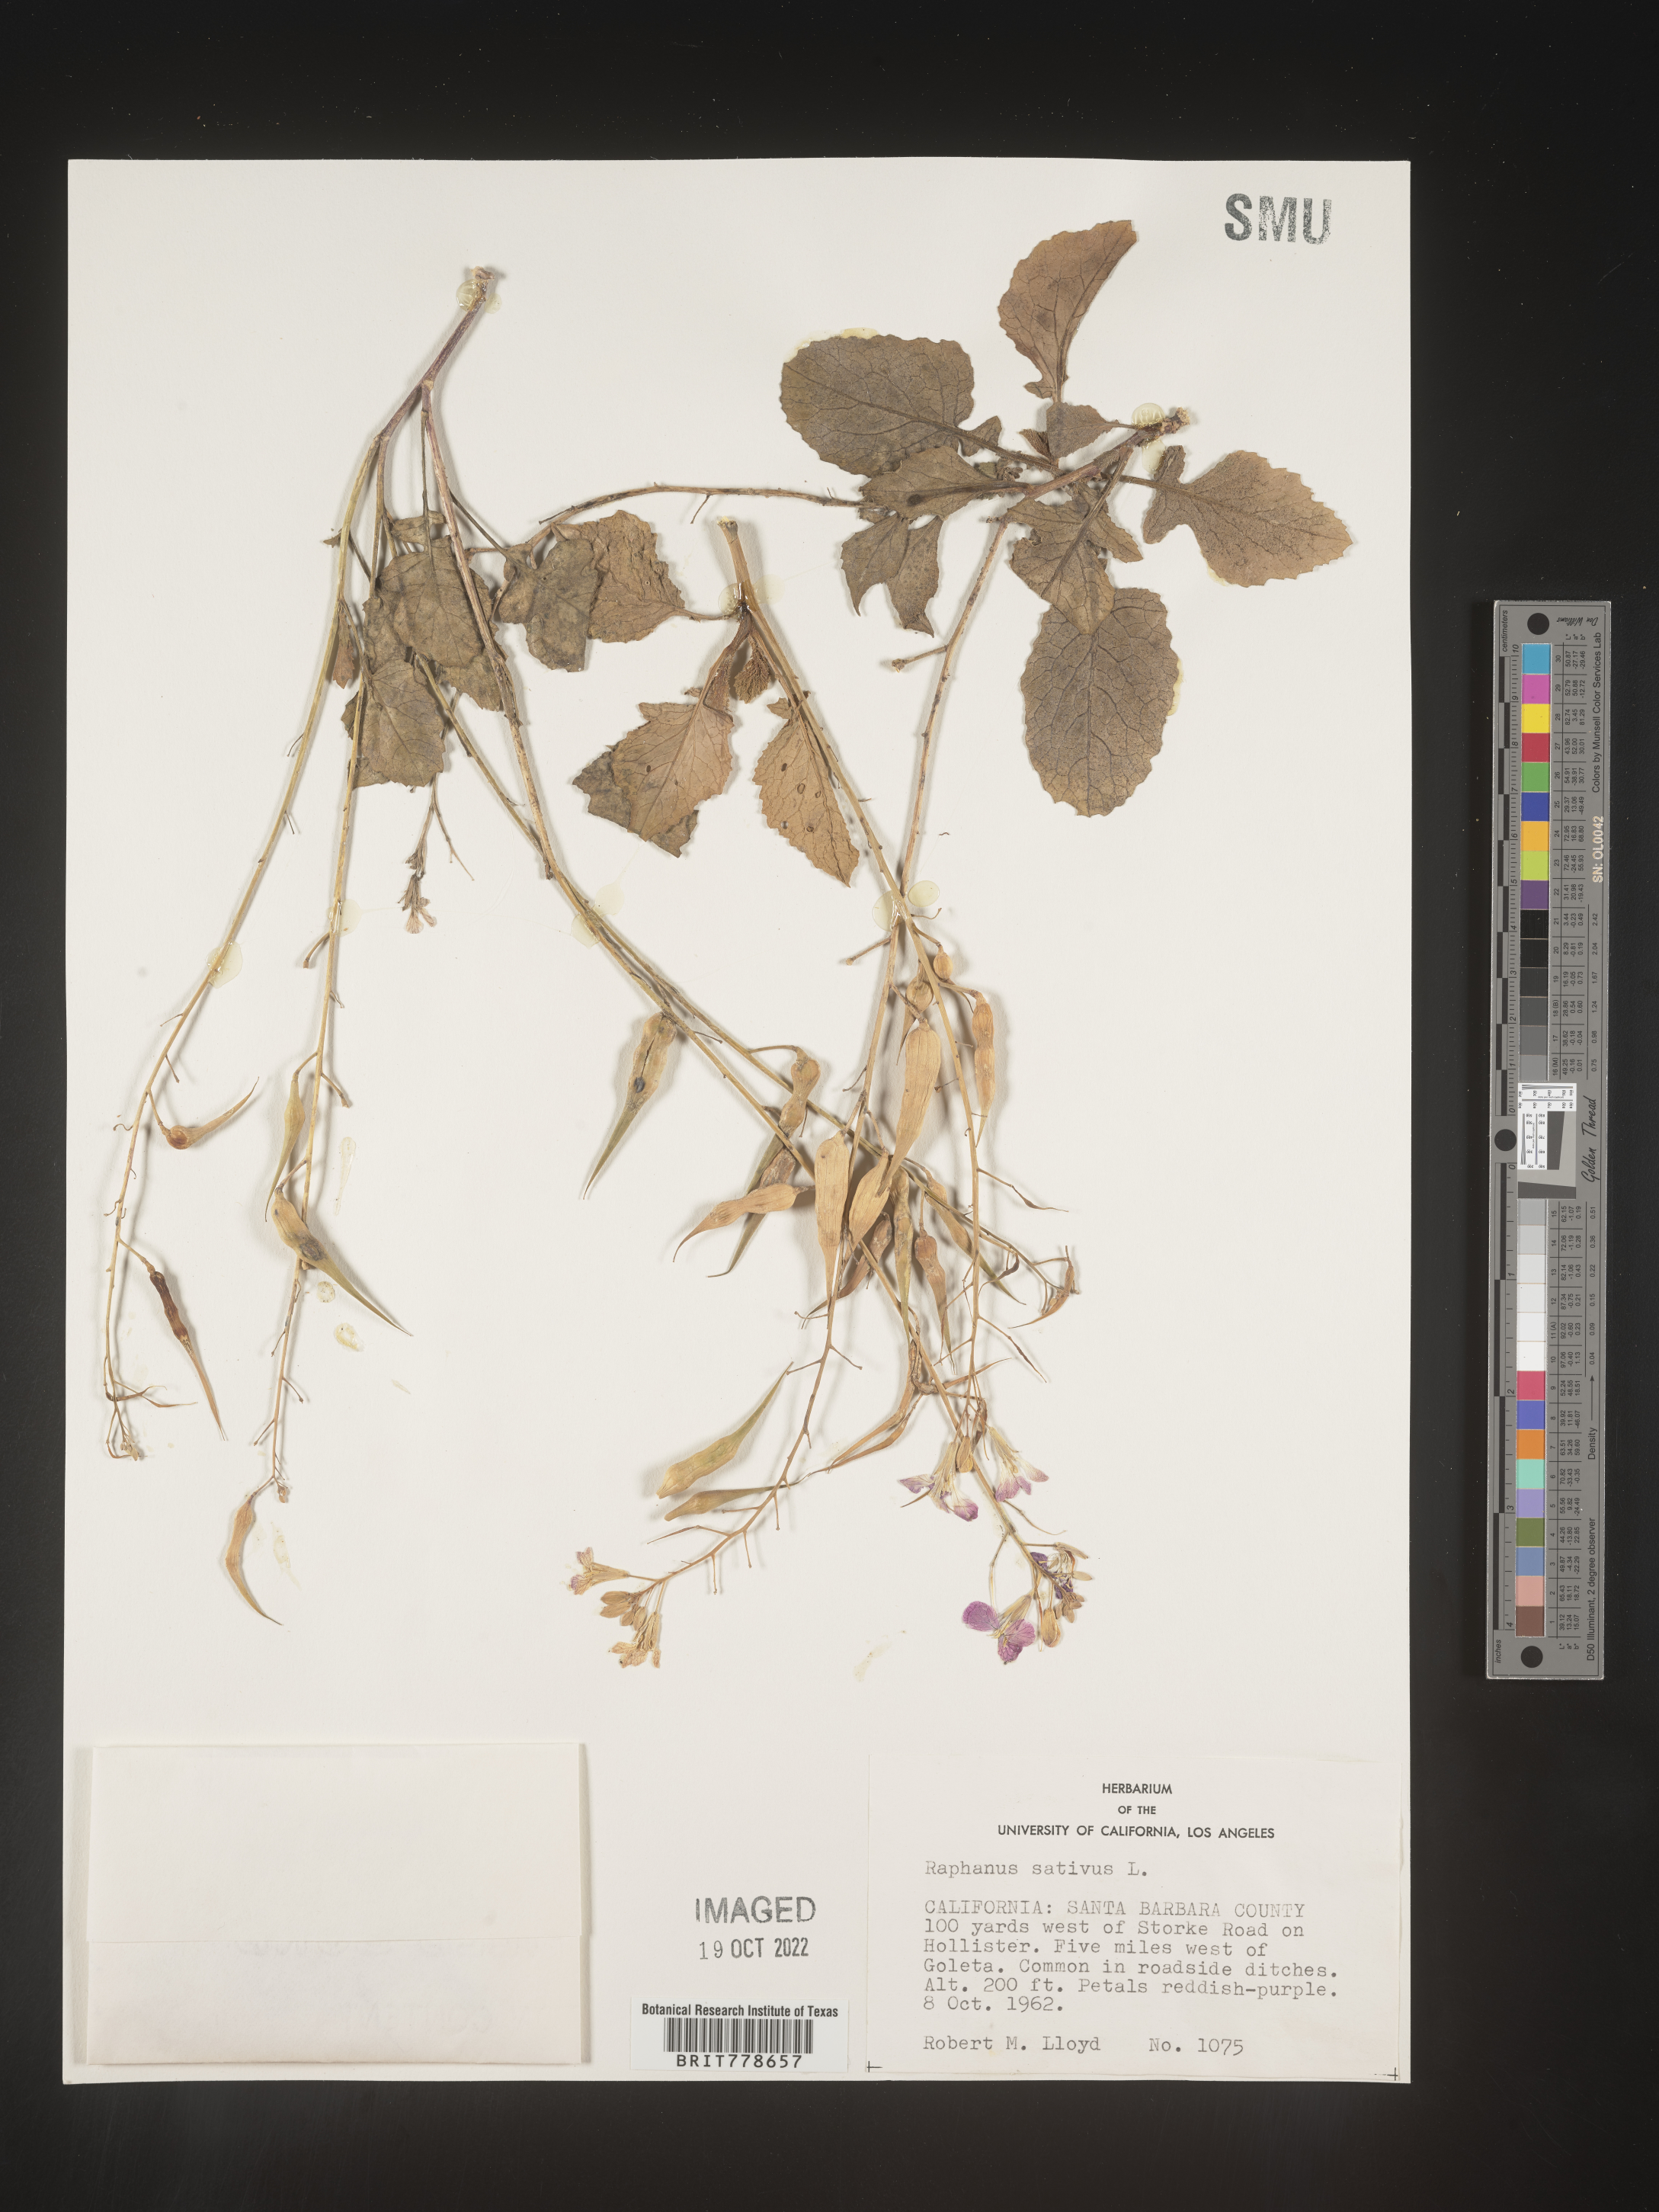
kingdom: Plantae
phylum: Tracheophyta
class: Magnoliopsida
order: Brassicales
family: Brassicaceae
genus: Raphanus
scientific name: Raphanus sativus
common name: Cultivated radish
